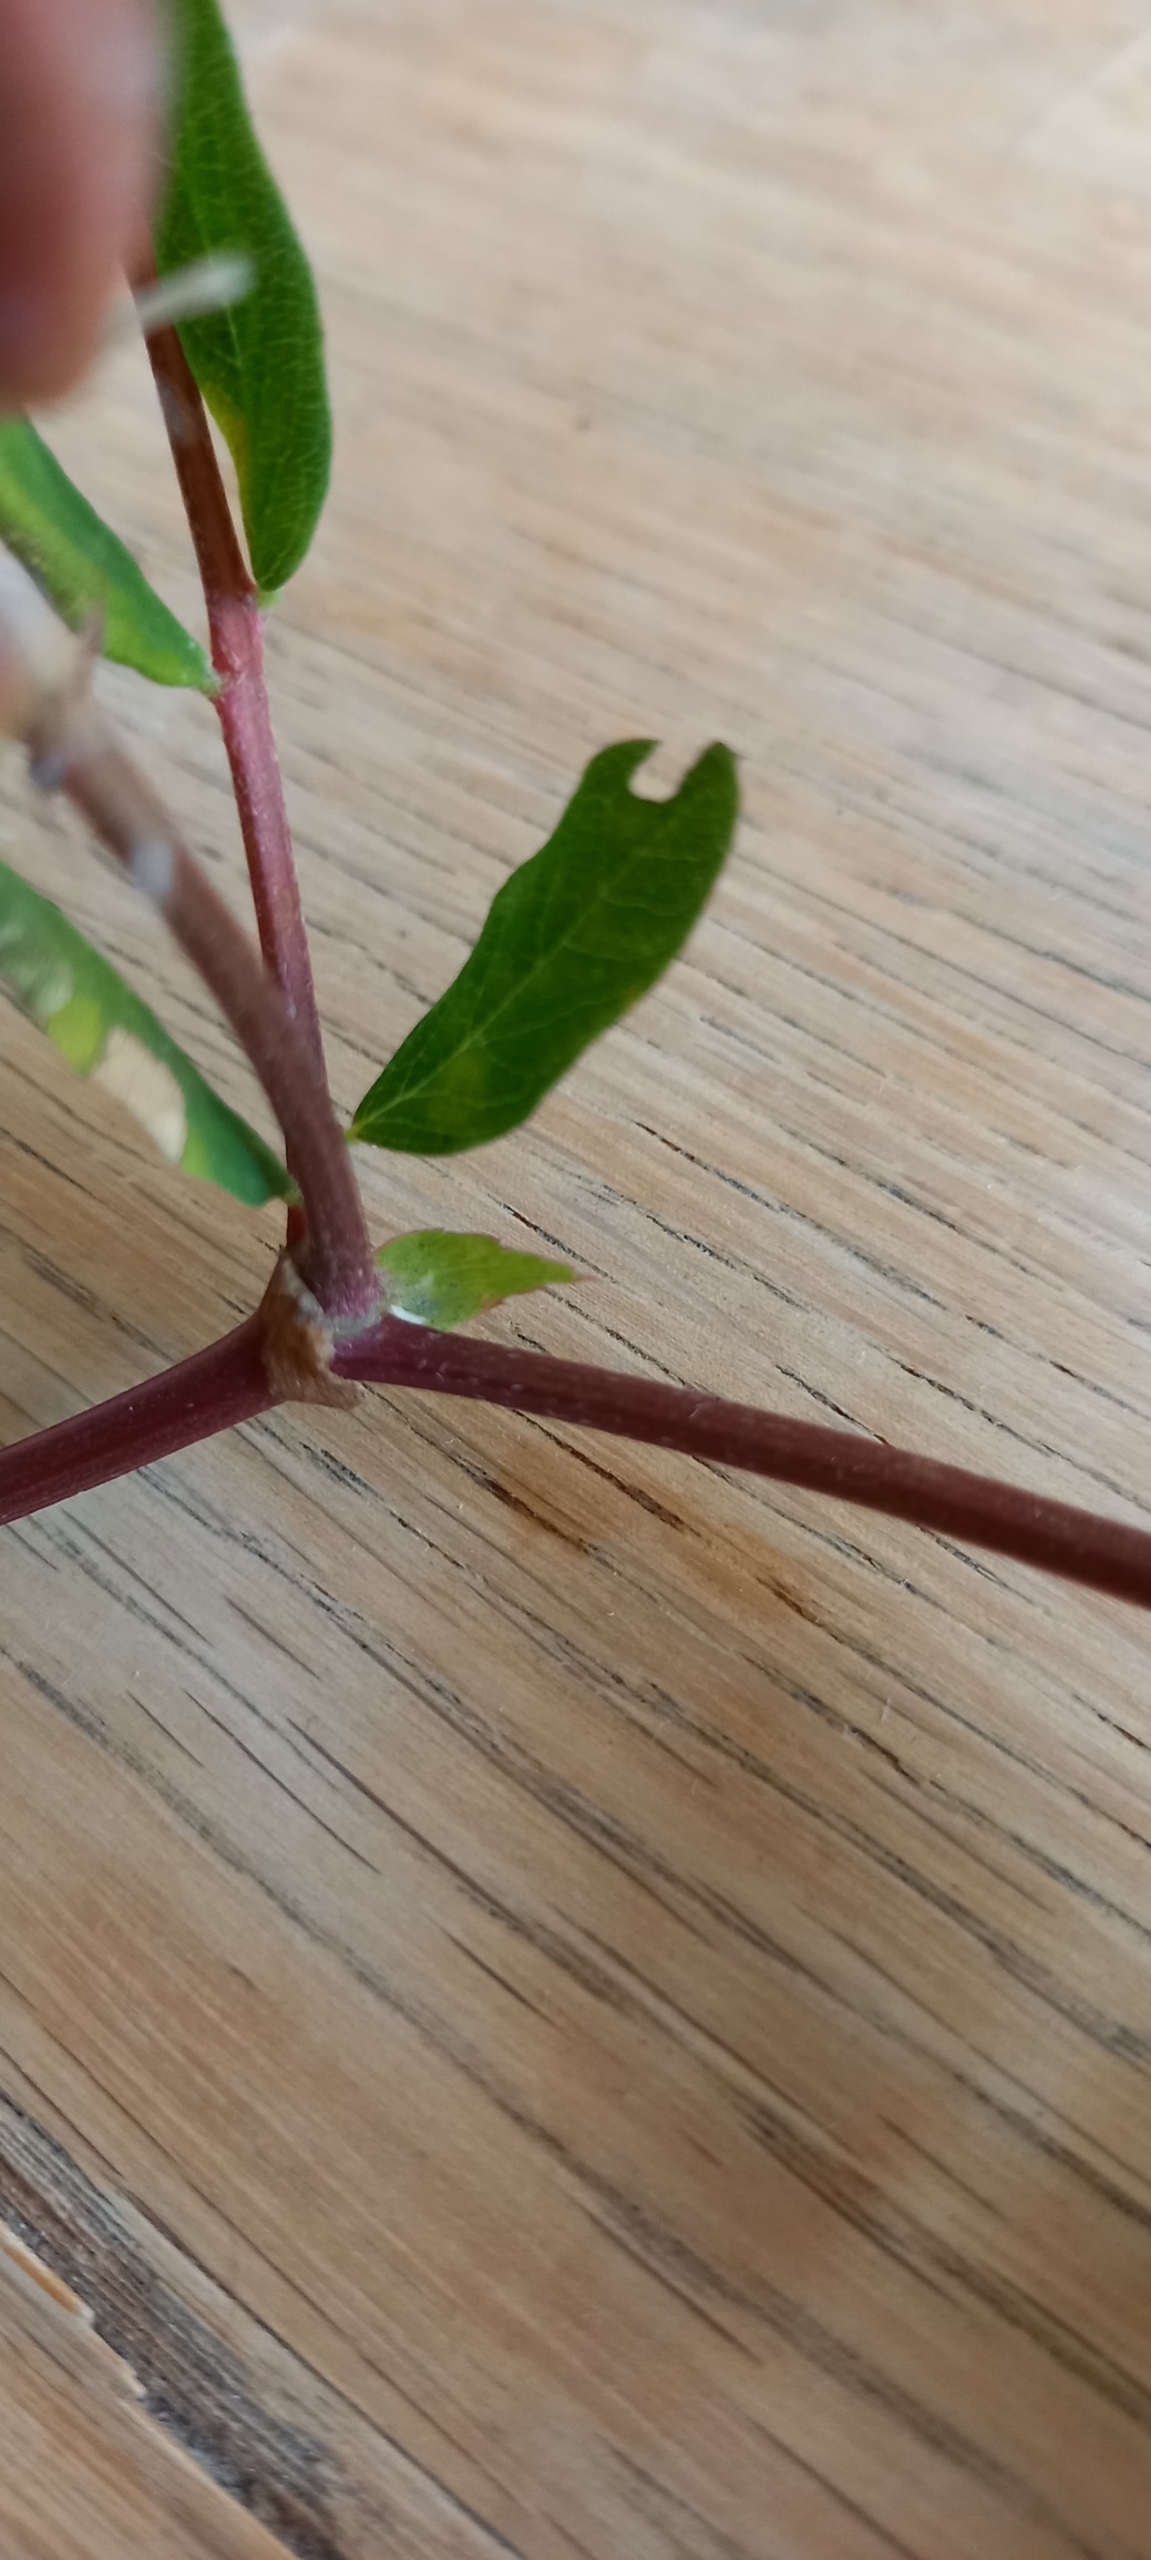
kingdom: Plantae
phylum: Tracheophyta
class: Magnoliopsida
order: Fabales
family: Fabaceae
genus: Astragalus
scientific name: Astragalus glycyphyllos
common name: Sød astragel
